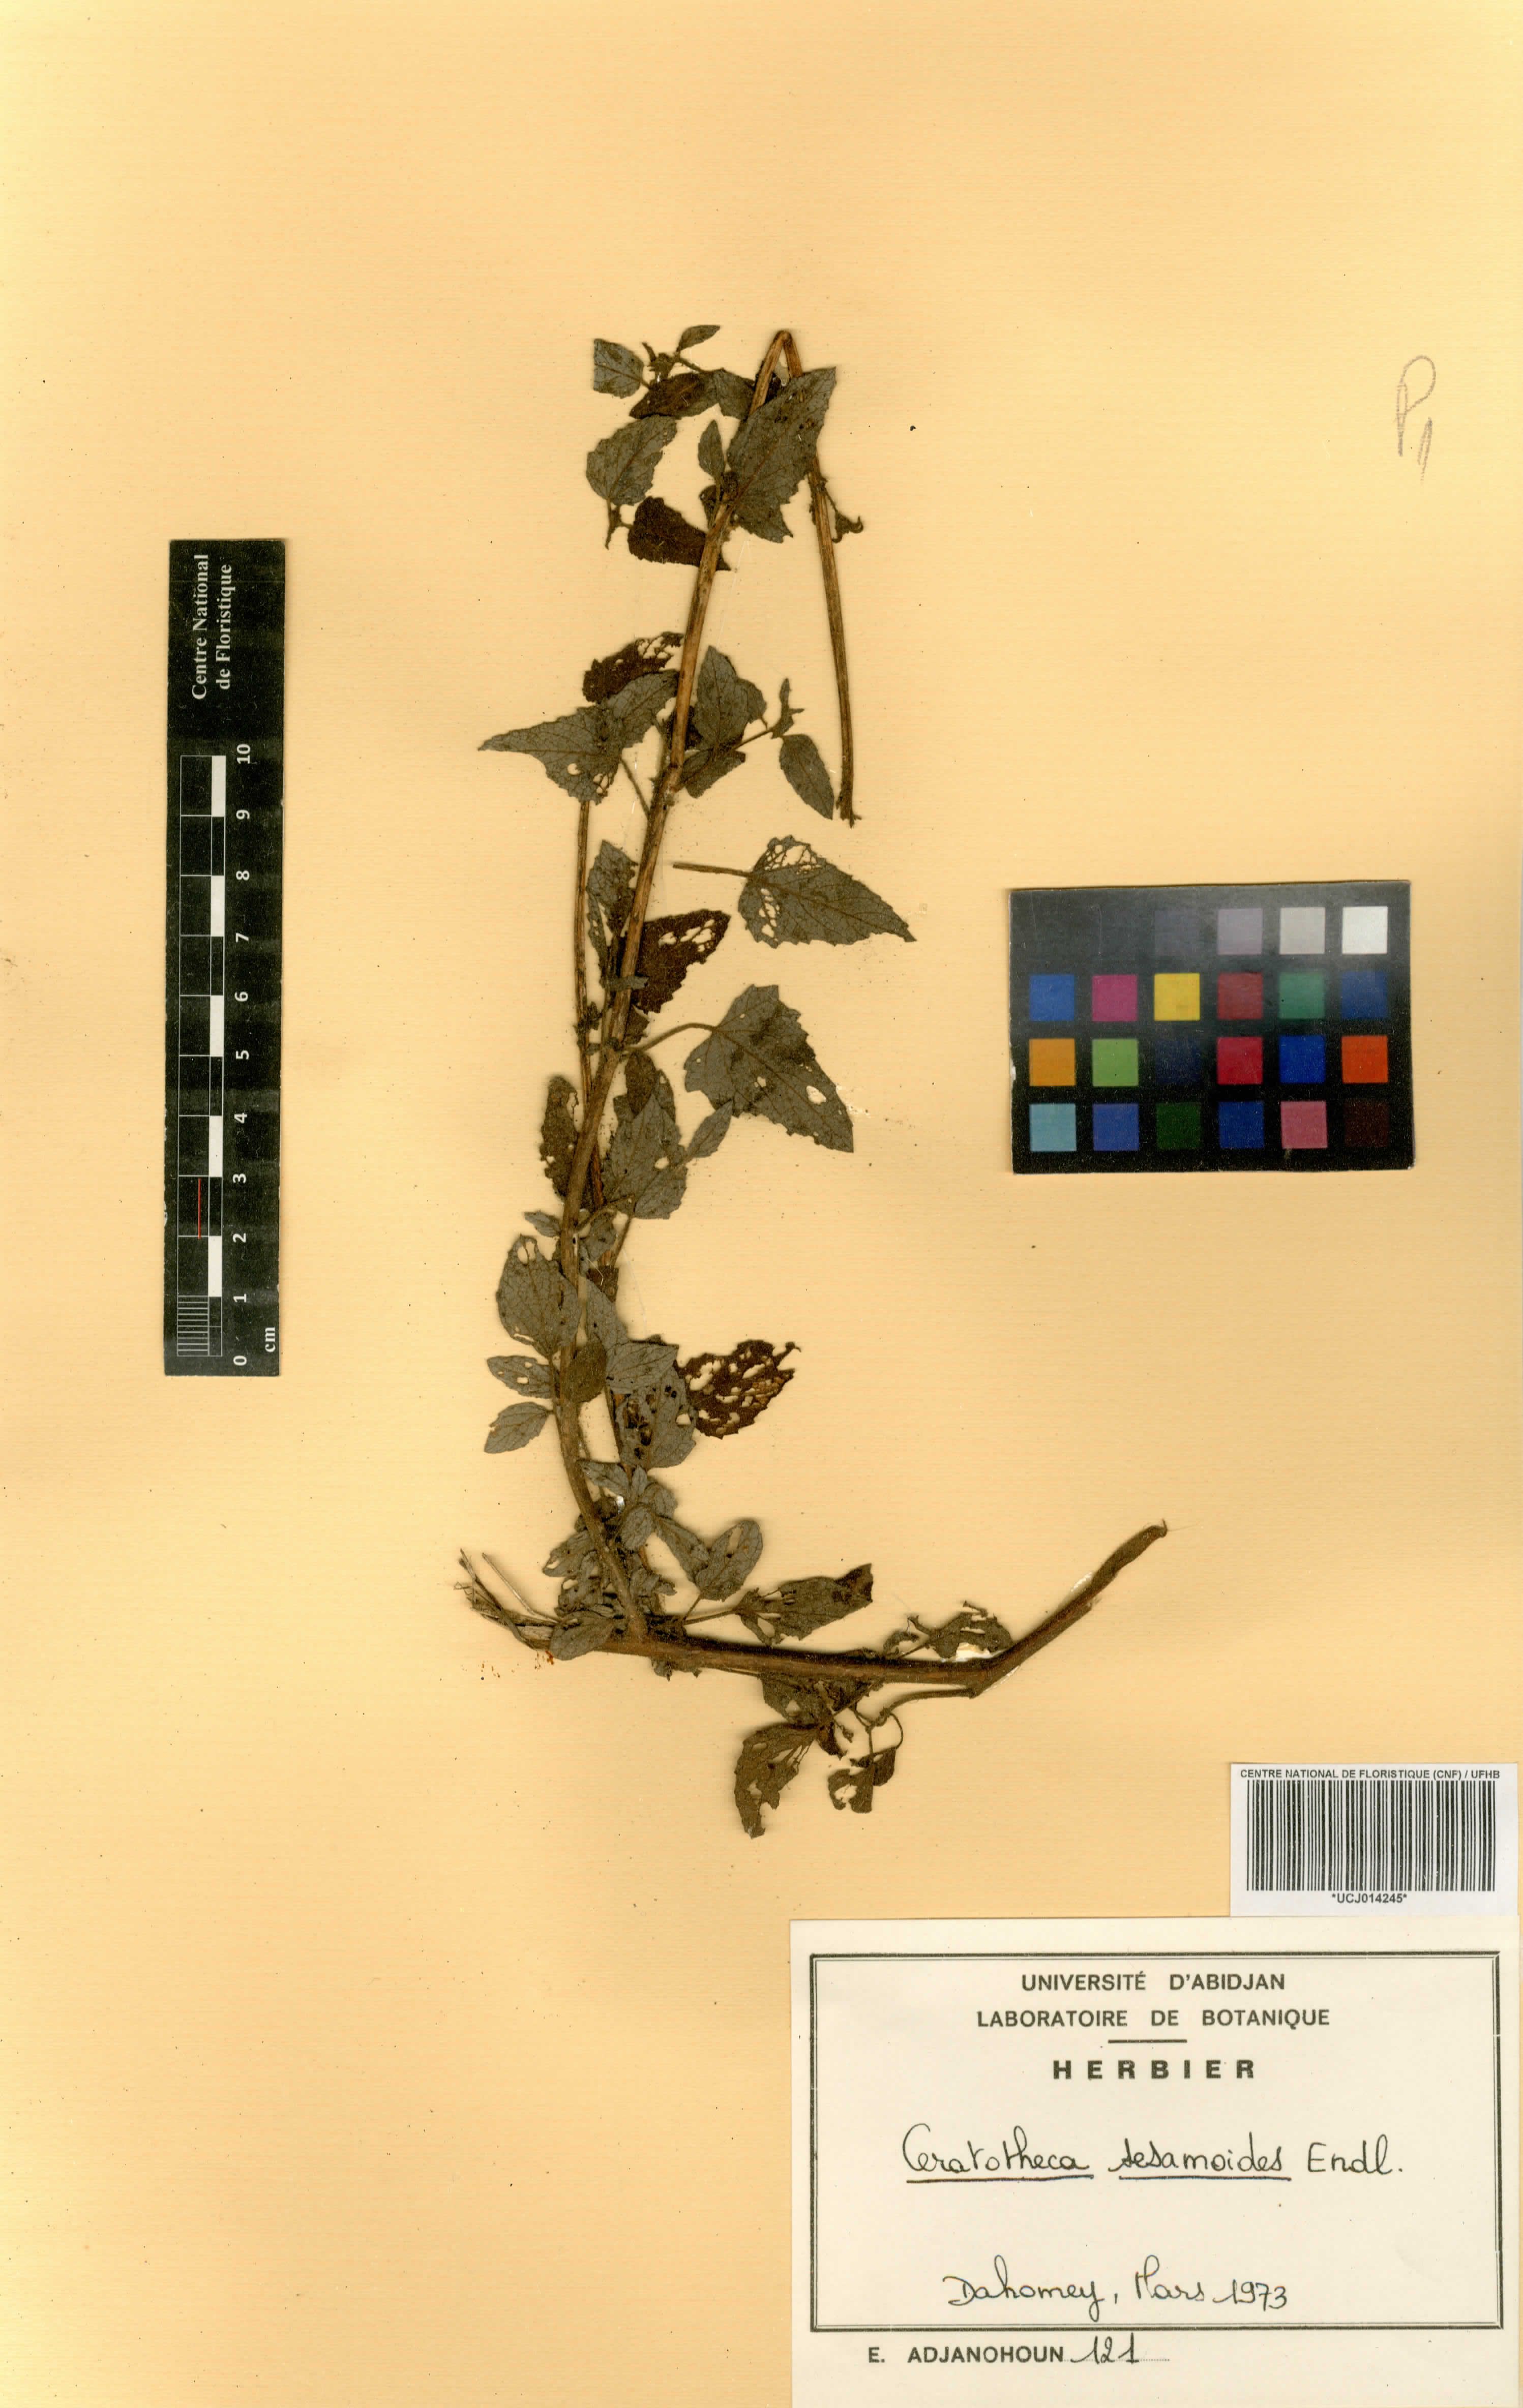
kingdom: Plantae
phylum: Tracheophyta
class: Magnoliopsida
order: Lamiales
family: Pedaliaceae
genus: Sesamum
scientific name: Sesamum sesamoides
